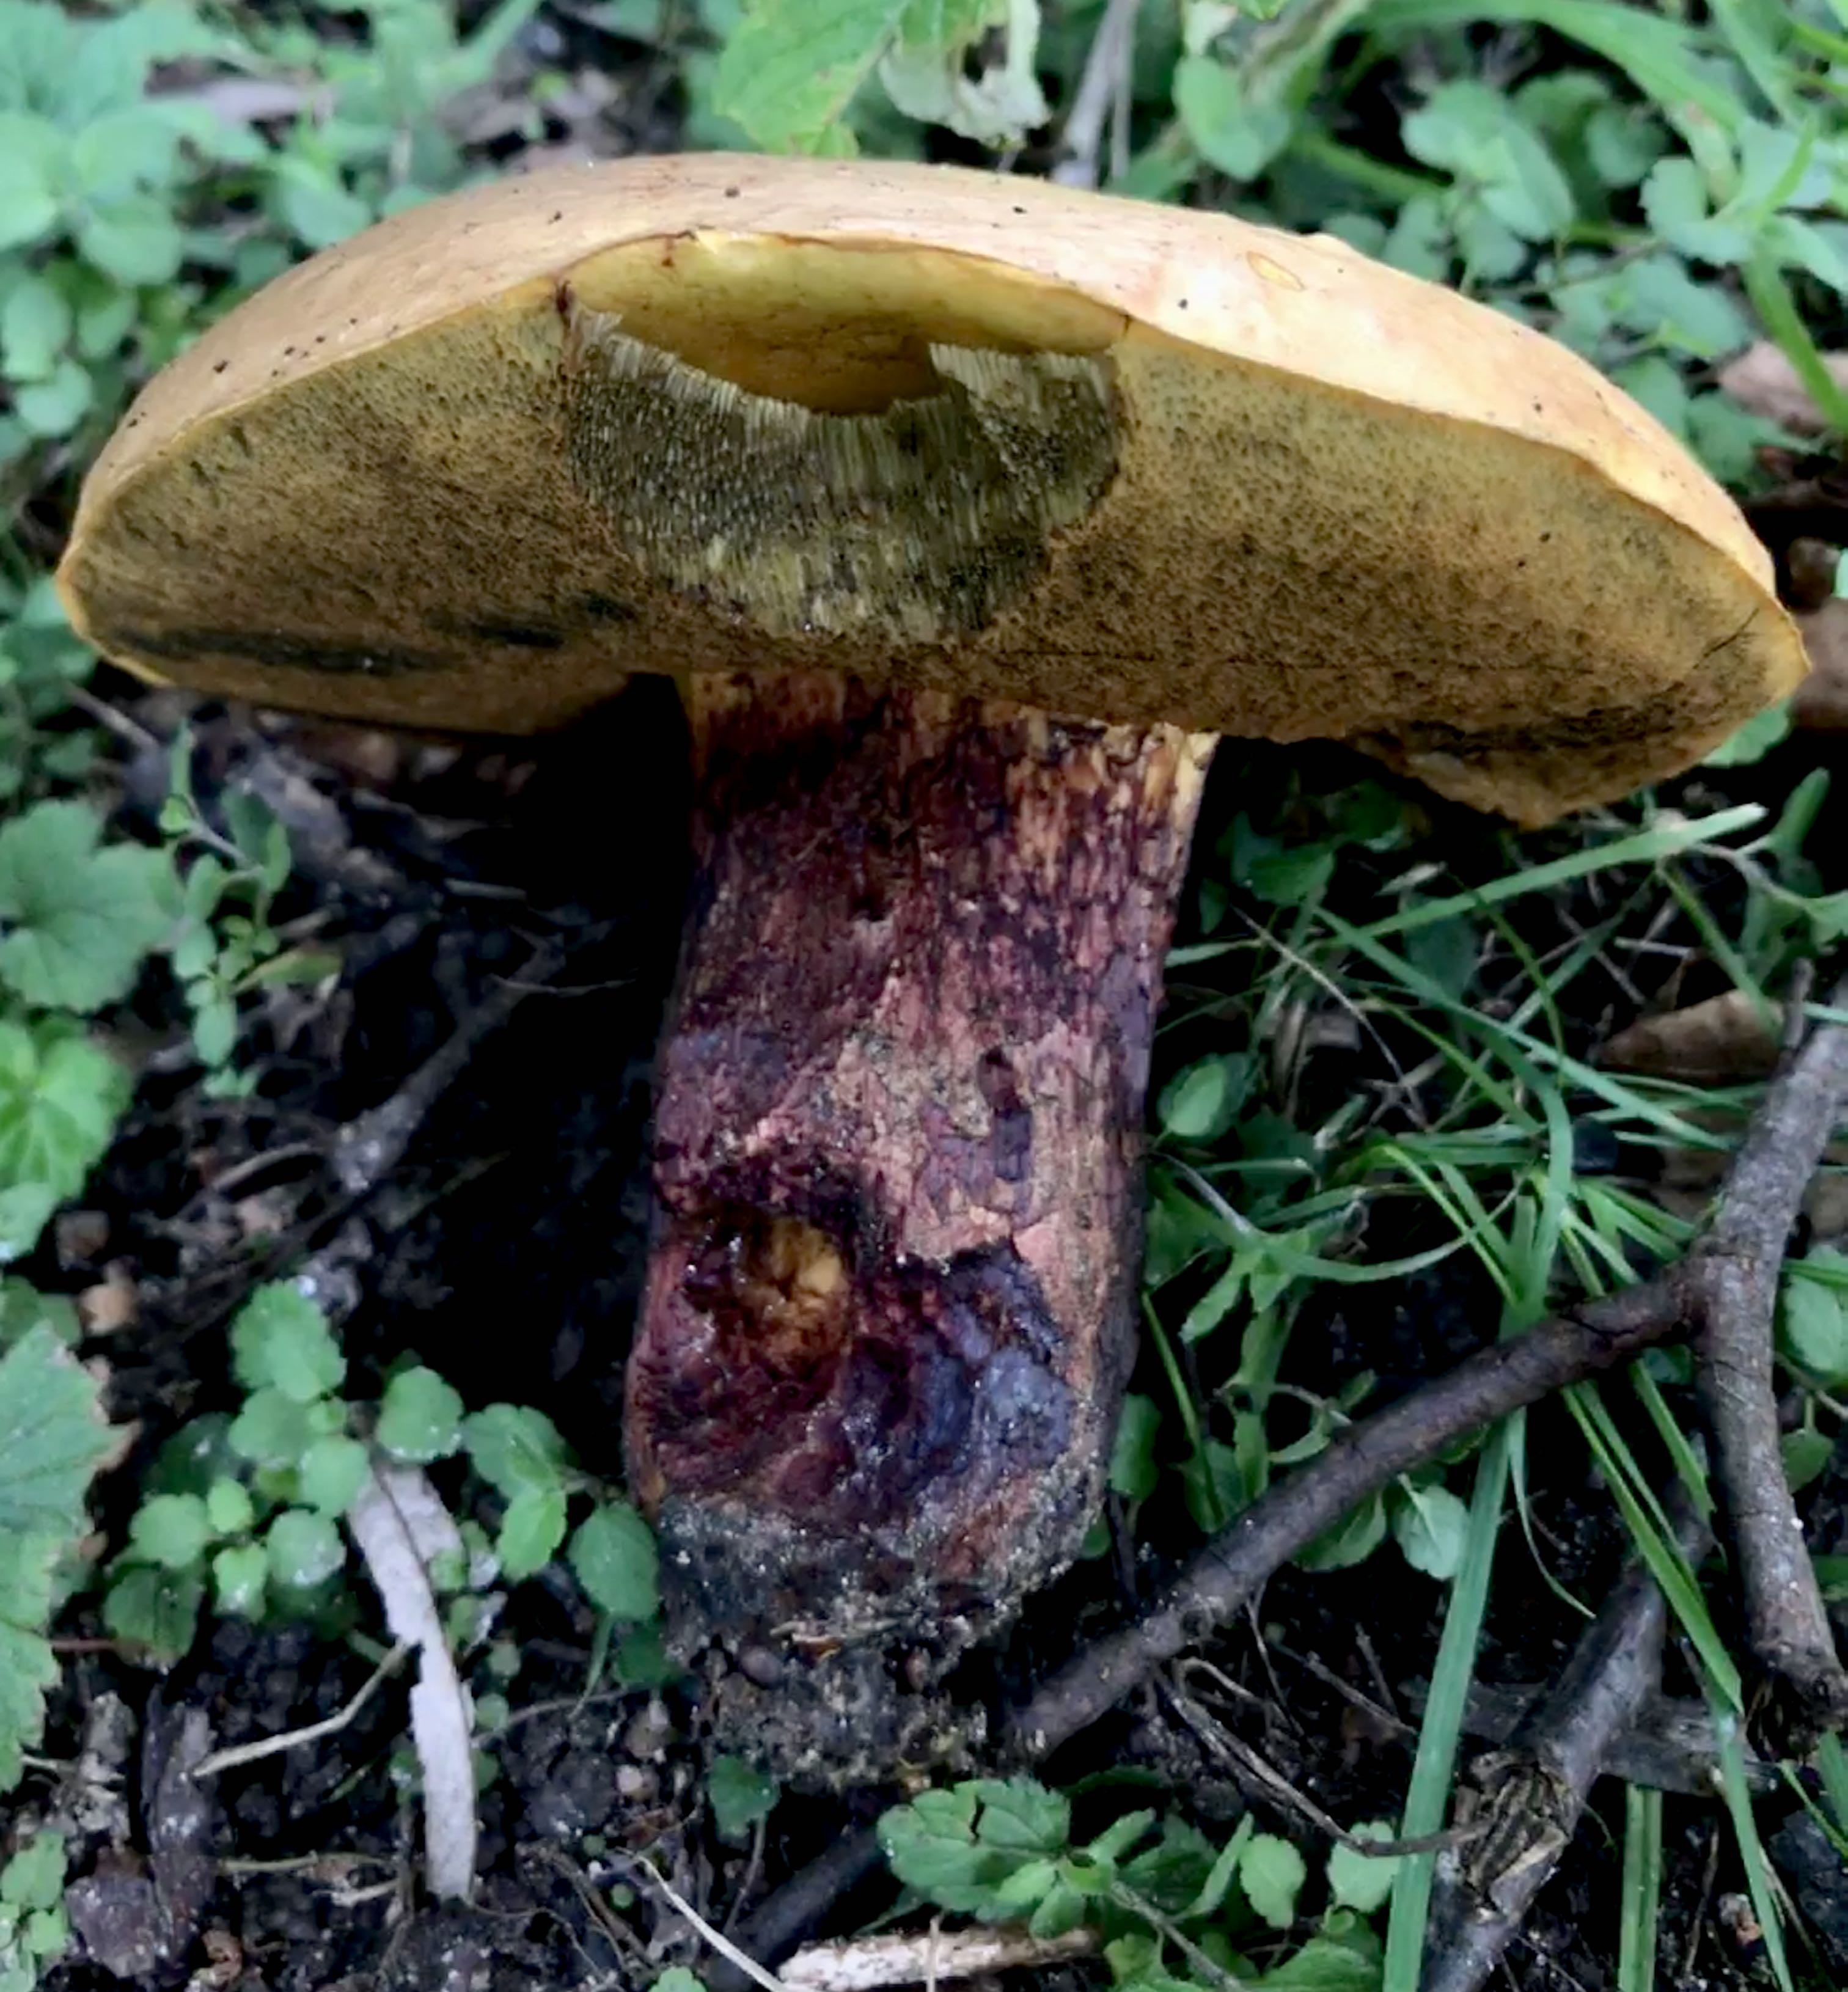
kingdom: Fungi
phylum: Basidiomycota
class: Agaricomycetes
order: Boletales
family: Boletaceae
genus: Suillellus
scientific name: Suillellus luridus
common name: netstokket indigorørhat
